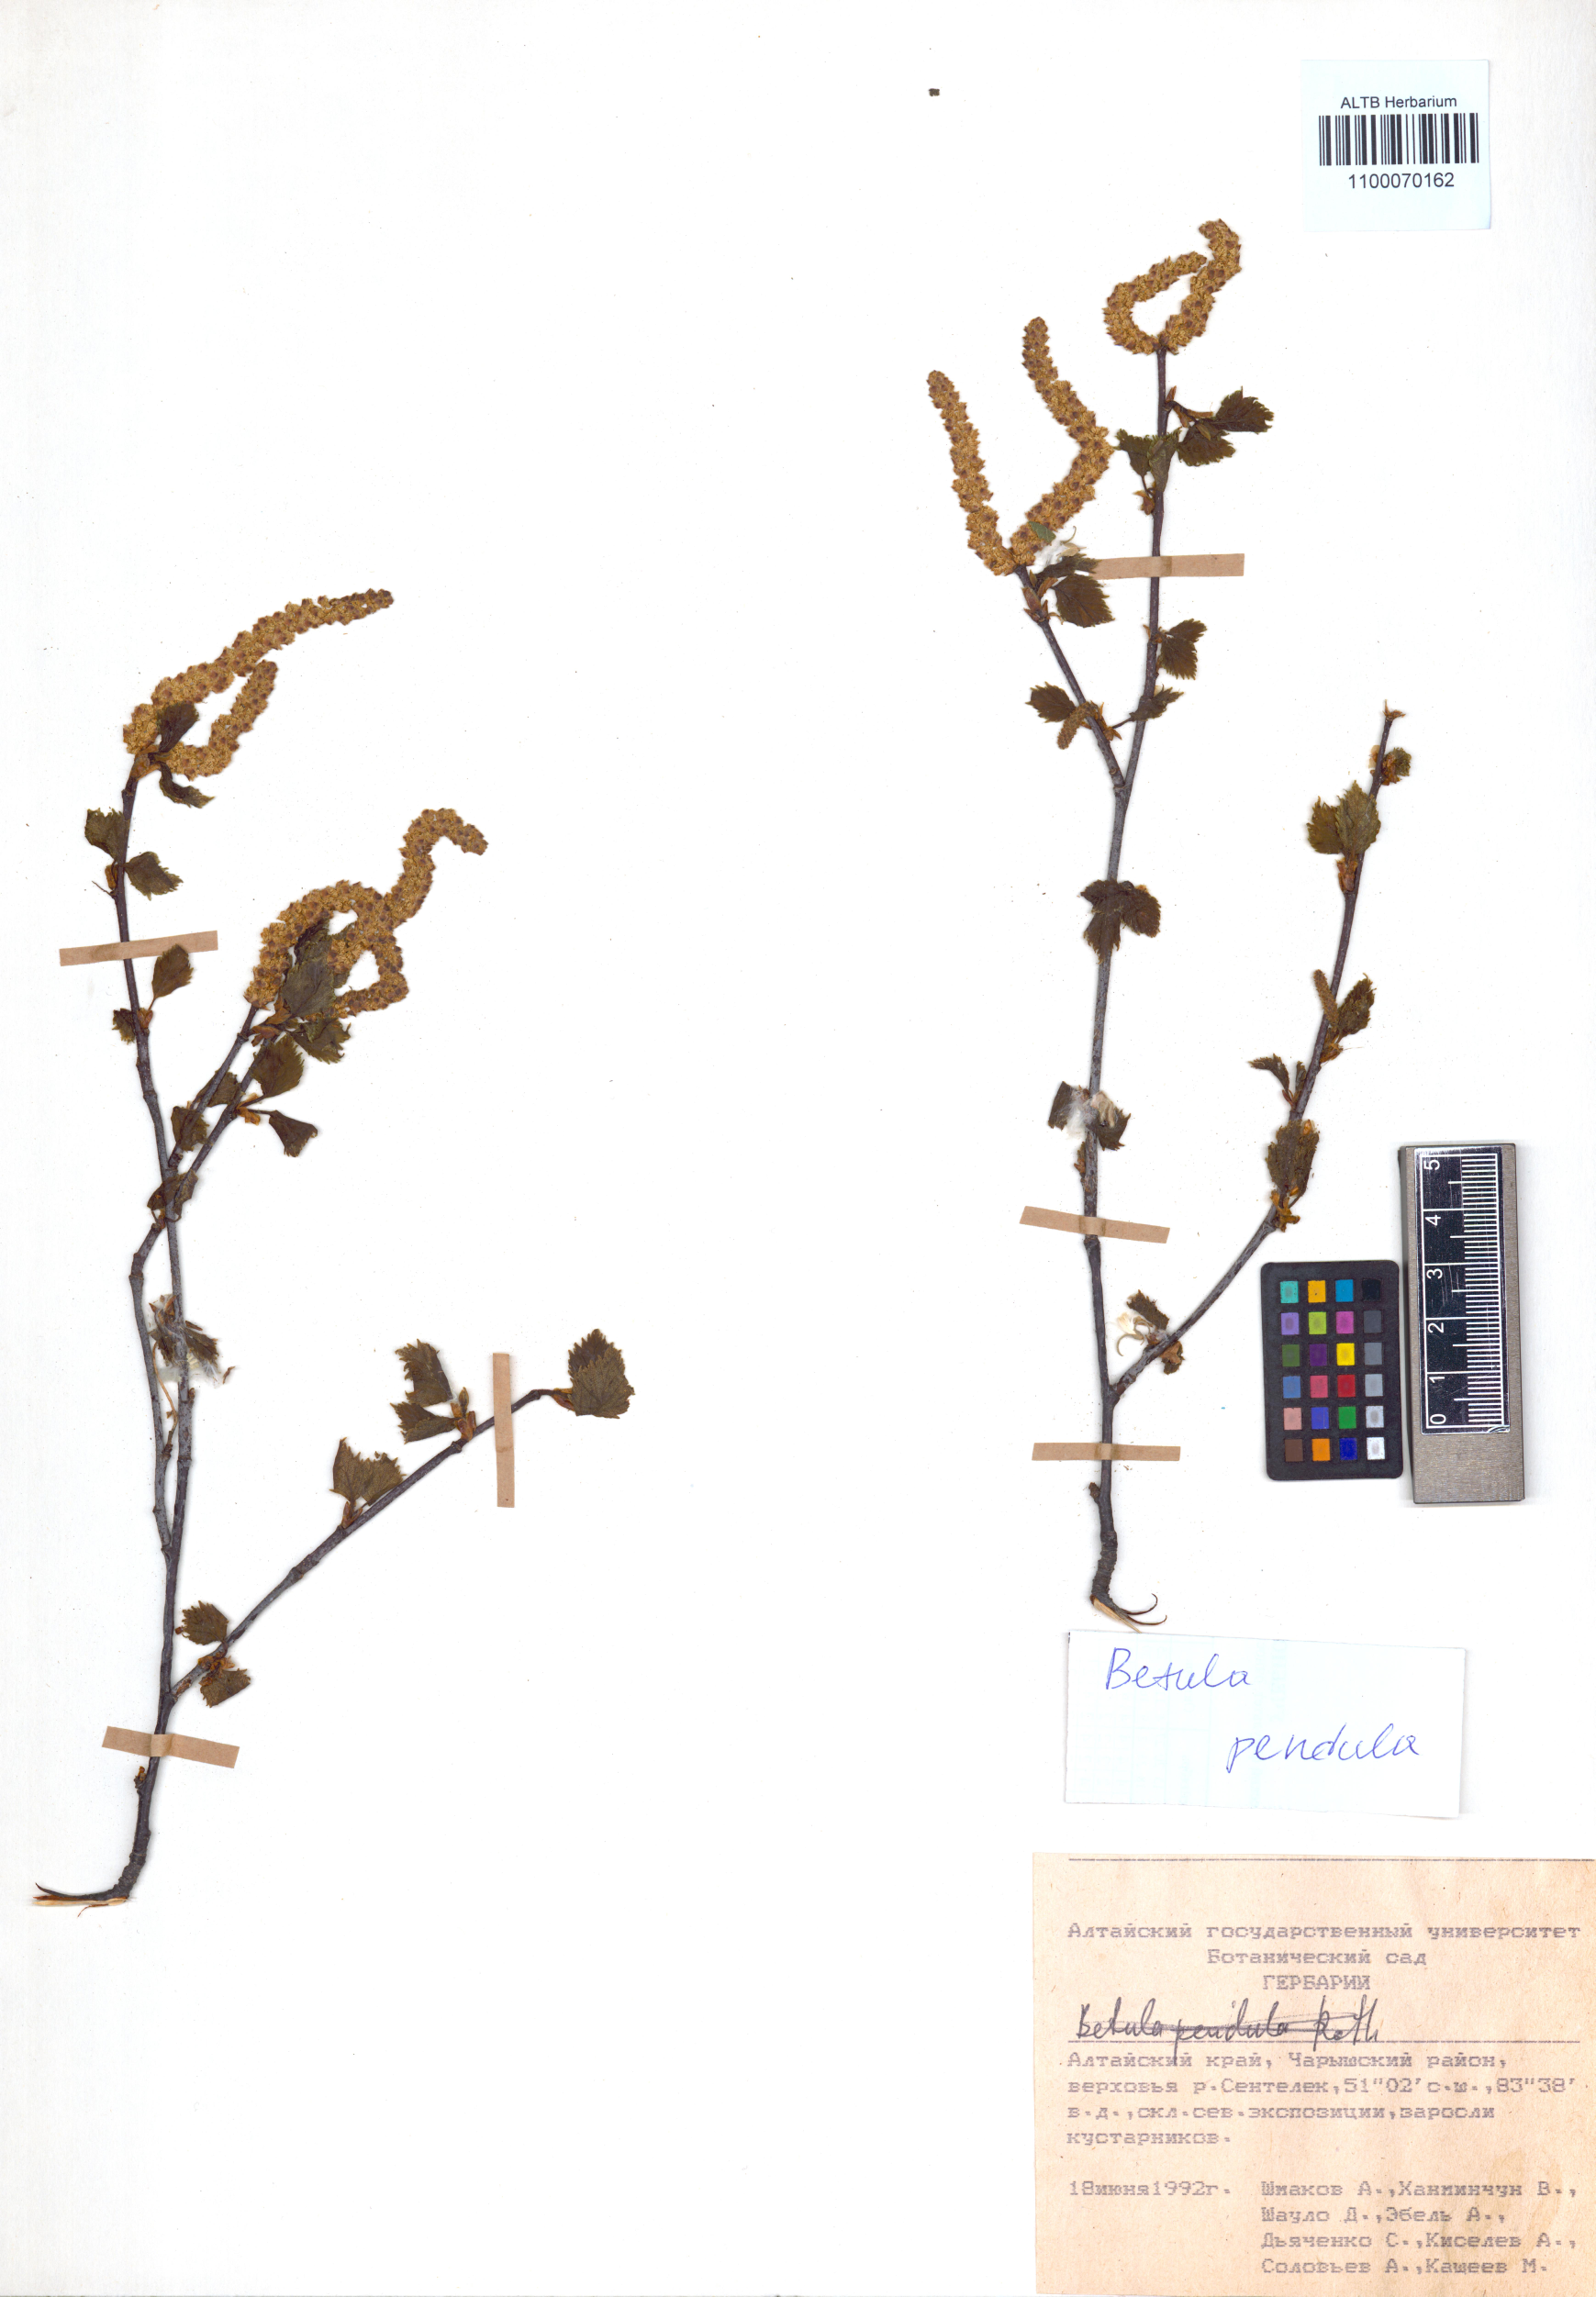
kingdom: Plantae
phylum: Tracheophyta
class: Magnoliopsida
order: Fagales
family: Betulaceae
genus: Betula
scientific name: Betula pendula
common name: Silver birch
